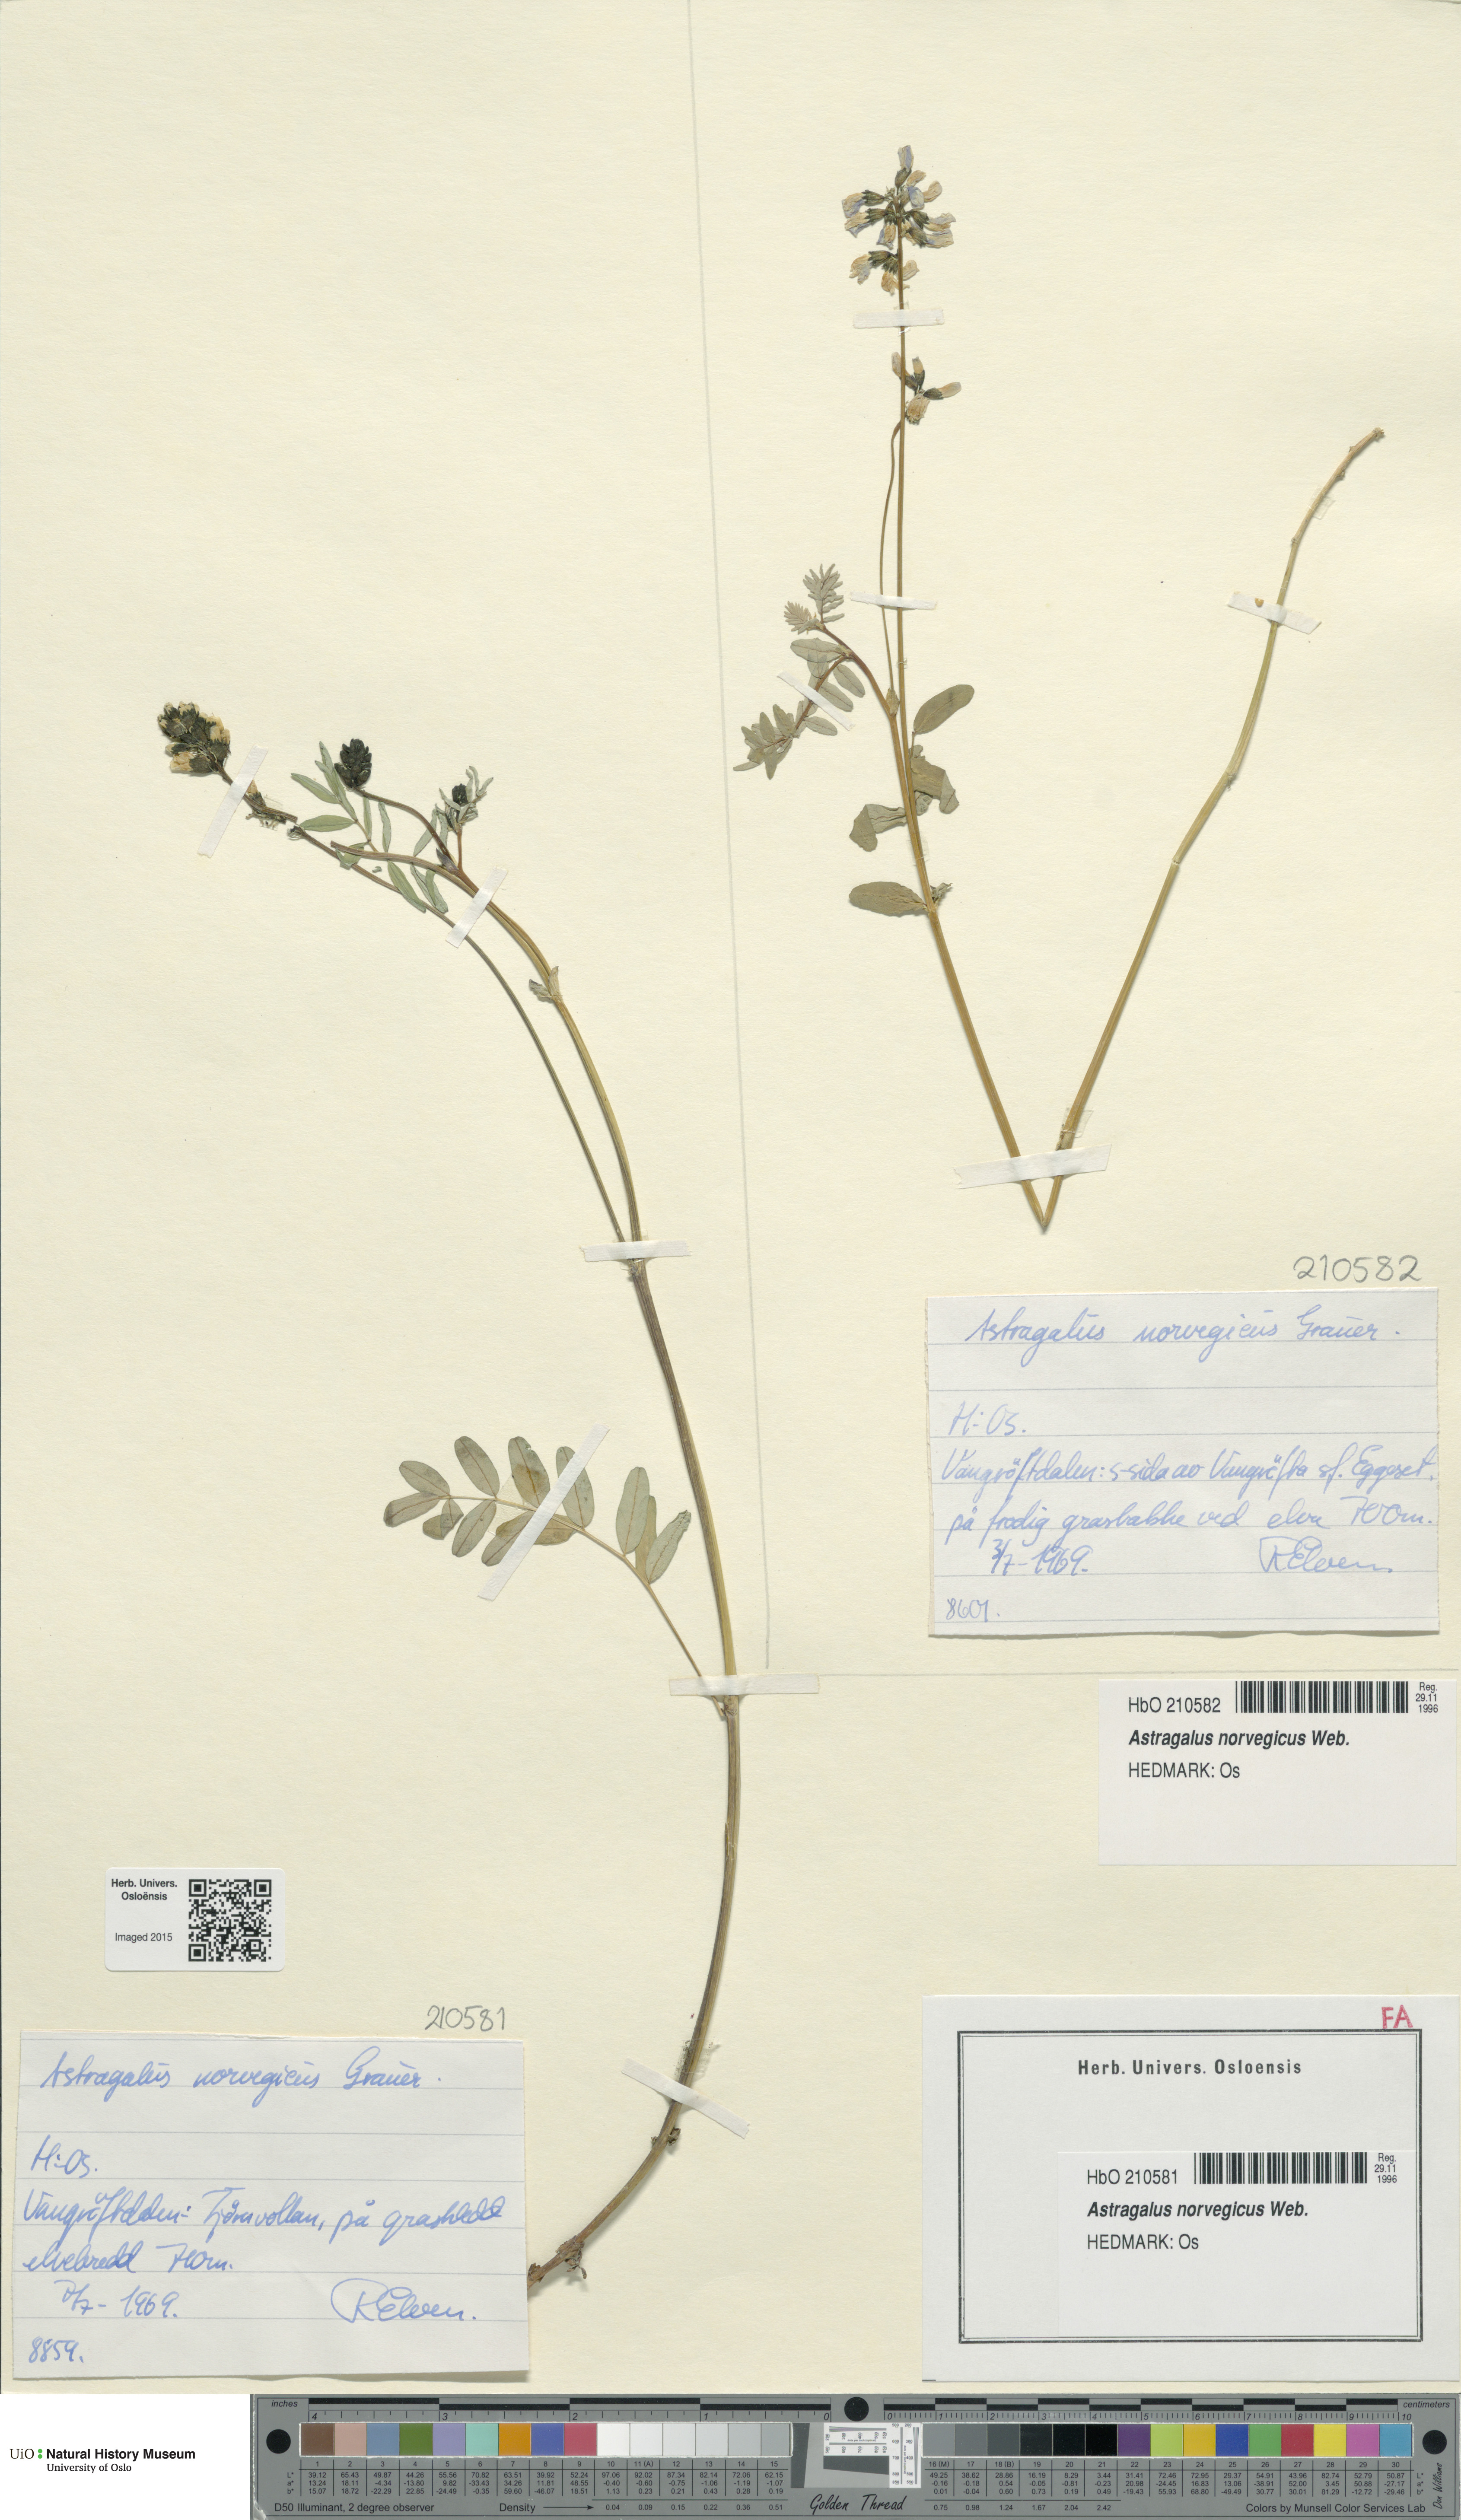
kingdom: Plantae
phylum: Tracheophyta
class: Magnoliopsida
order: Fabales
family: Fabaceae
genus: Astragalus
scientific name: Astragalus norvegicus
